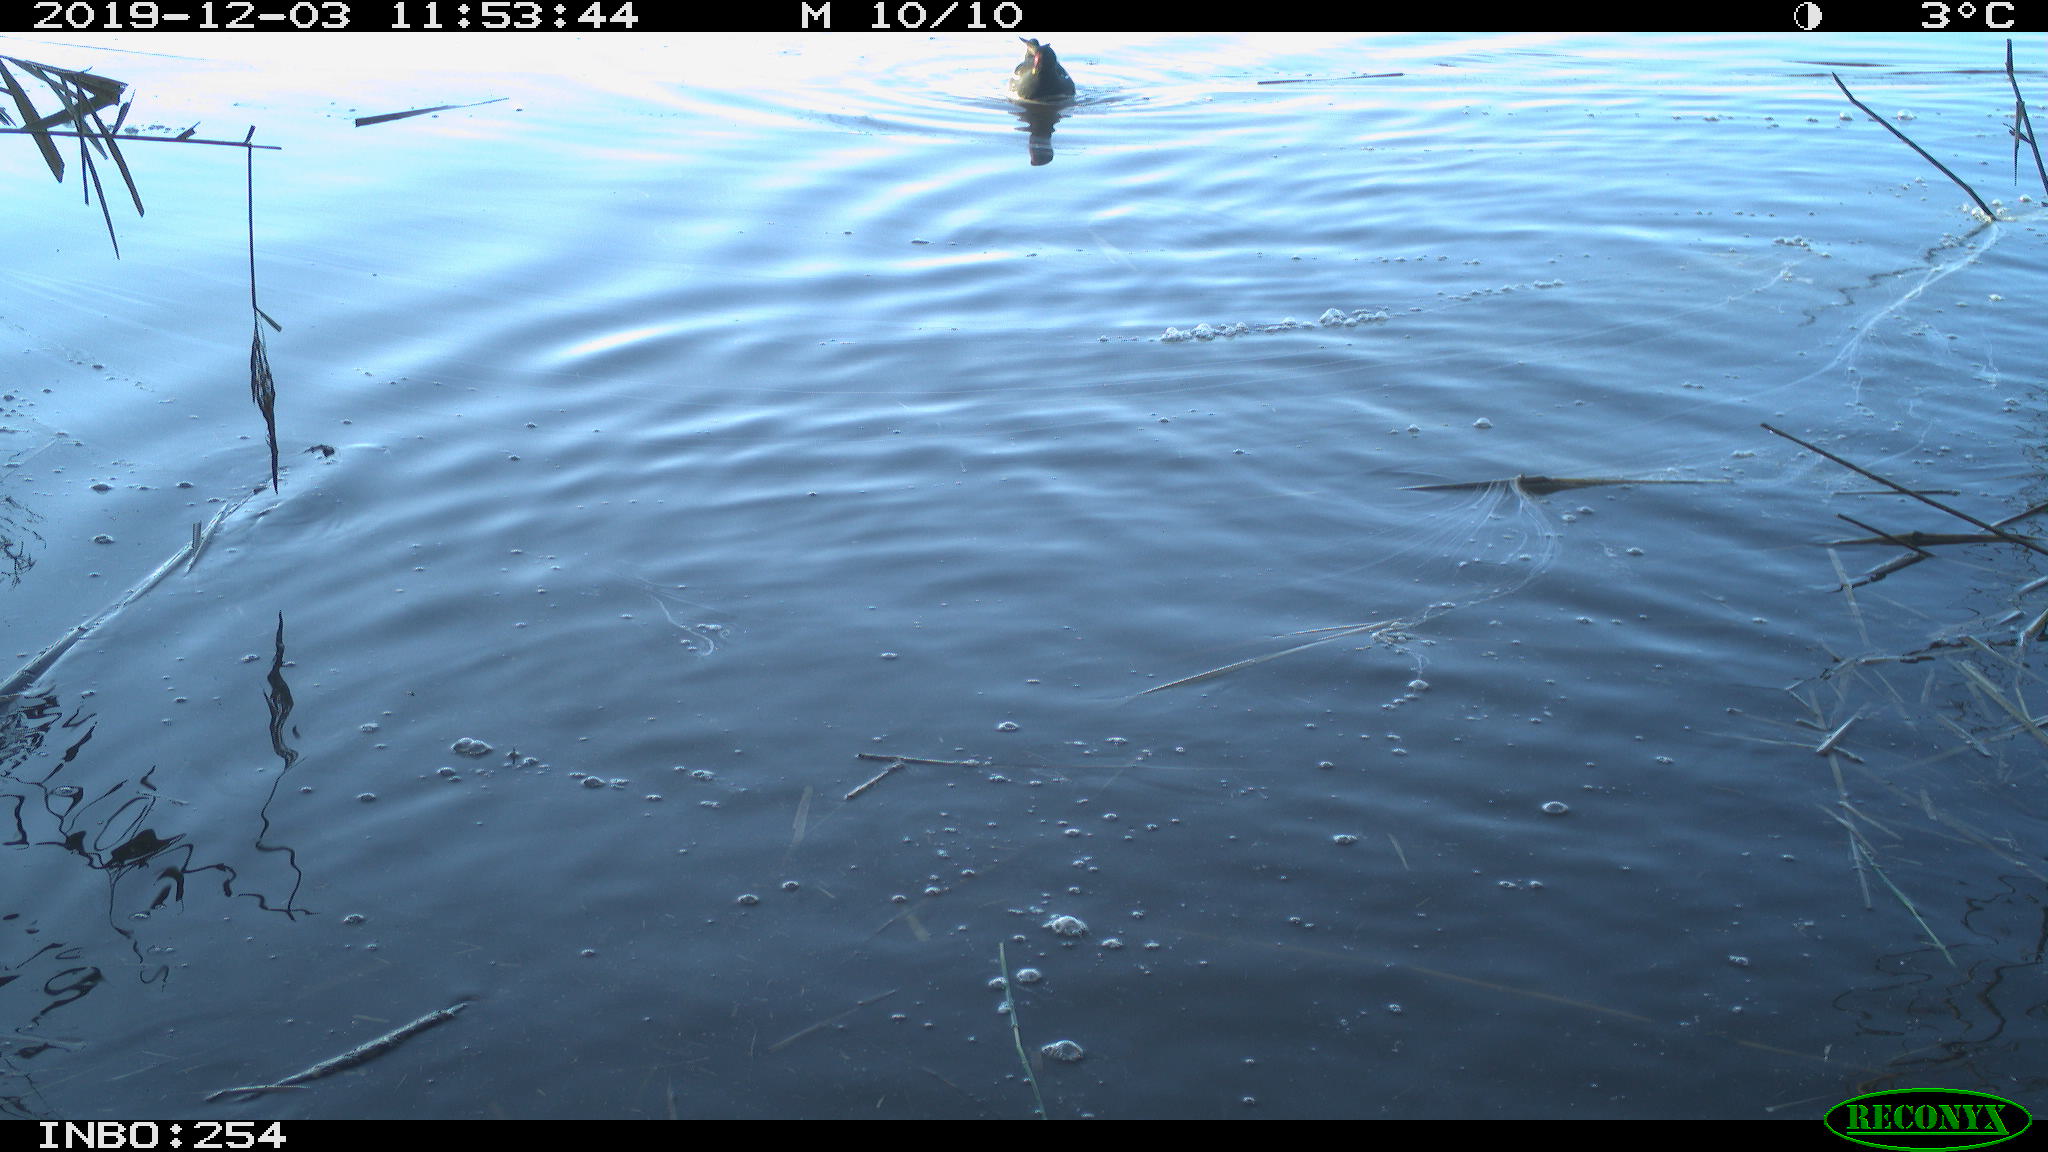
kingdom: Animalia
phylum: Chordata
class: Aves
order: Gruiformes
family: Rallidae
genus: Gallinula
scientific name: Gallinula chloropus
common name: Common moorhen
